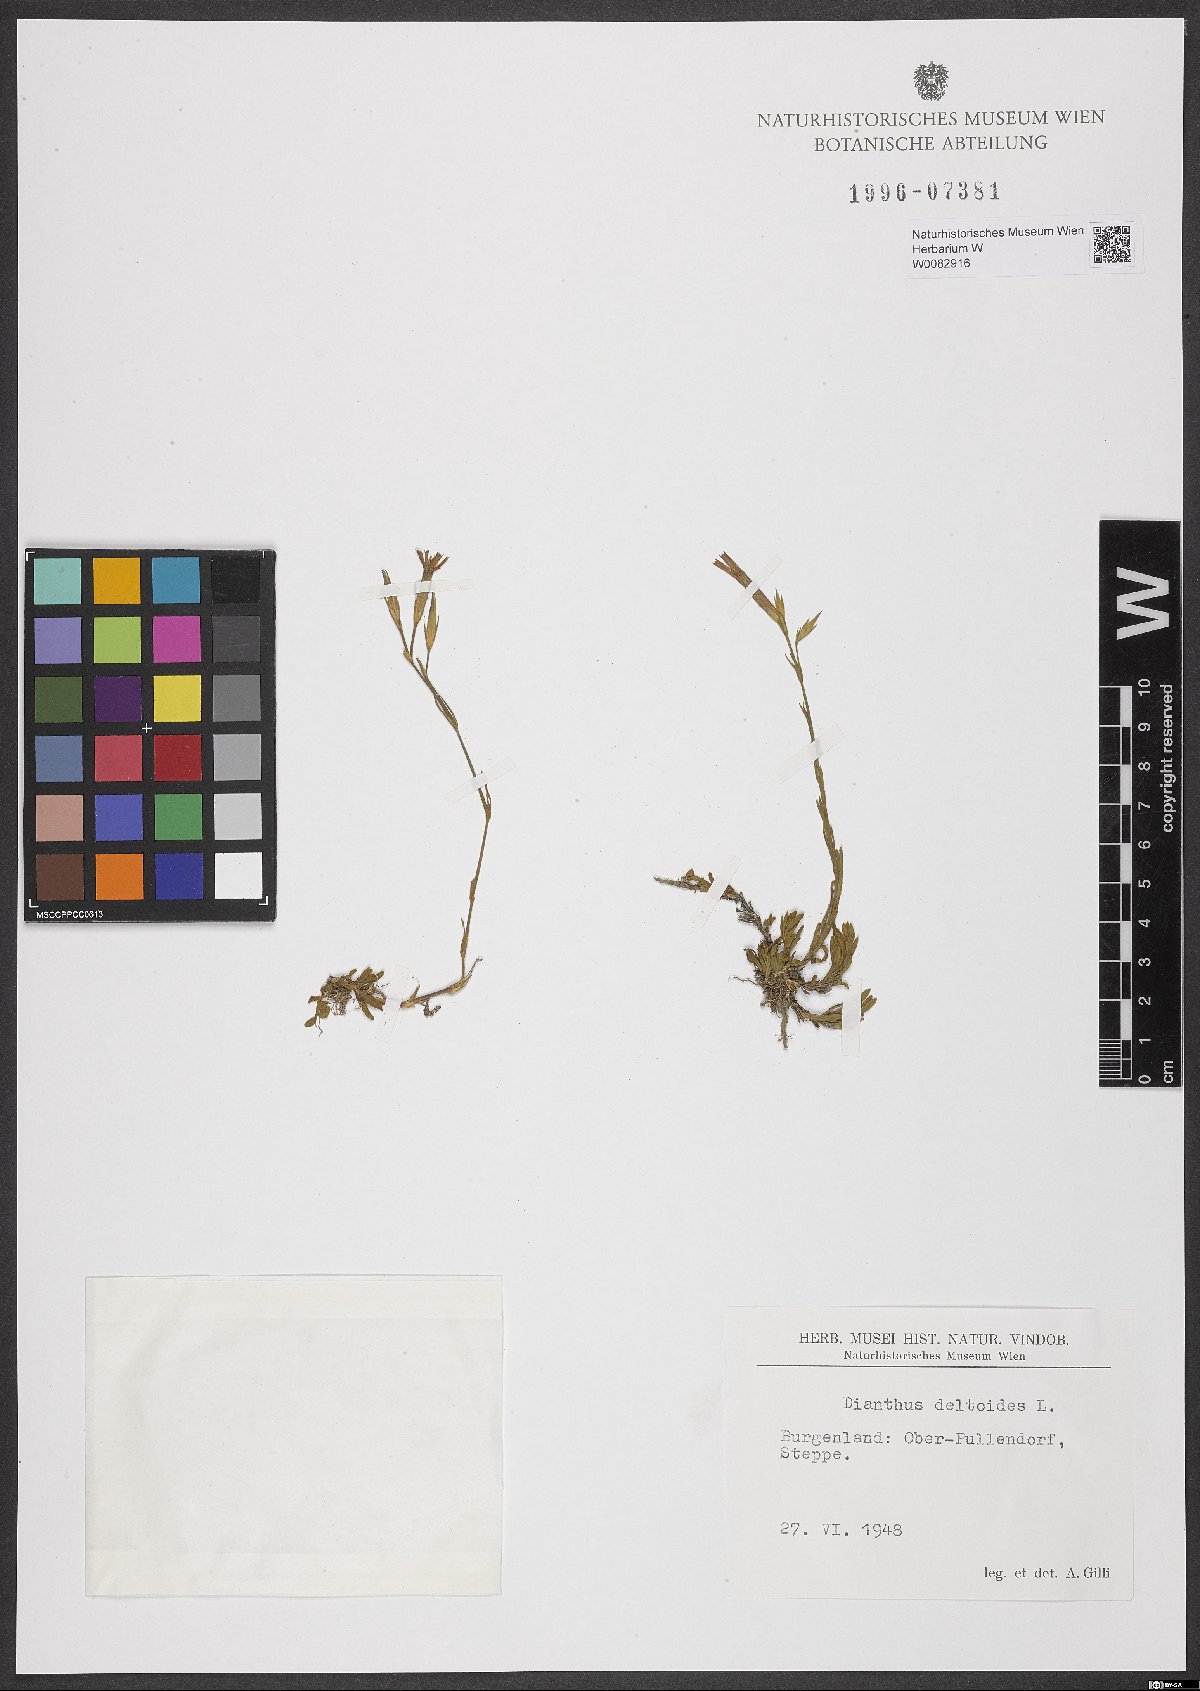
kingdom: Plantae
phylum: Tracheophyta
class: Magnoliopsida
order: Caryophyllales
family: Caryophyllaceae
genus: Dianthus
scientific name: Dianthus deltoides
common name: Maiden pink
